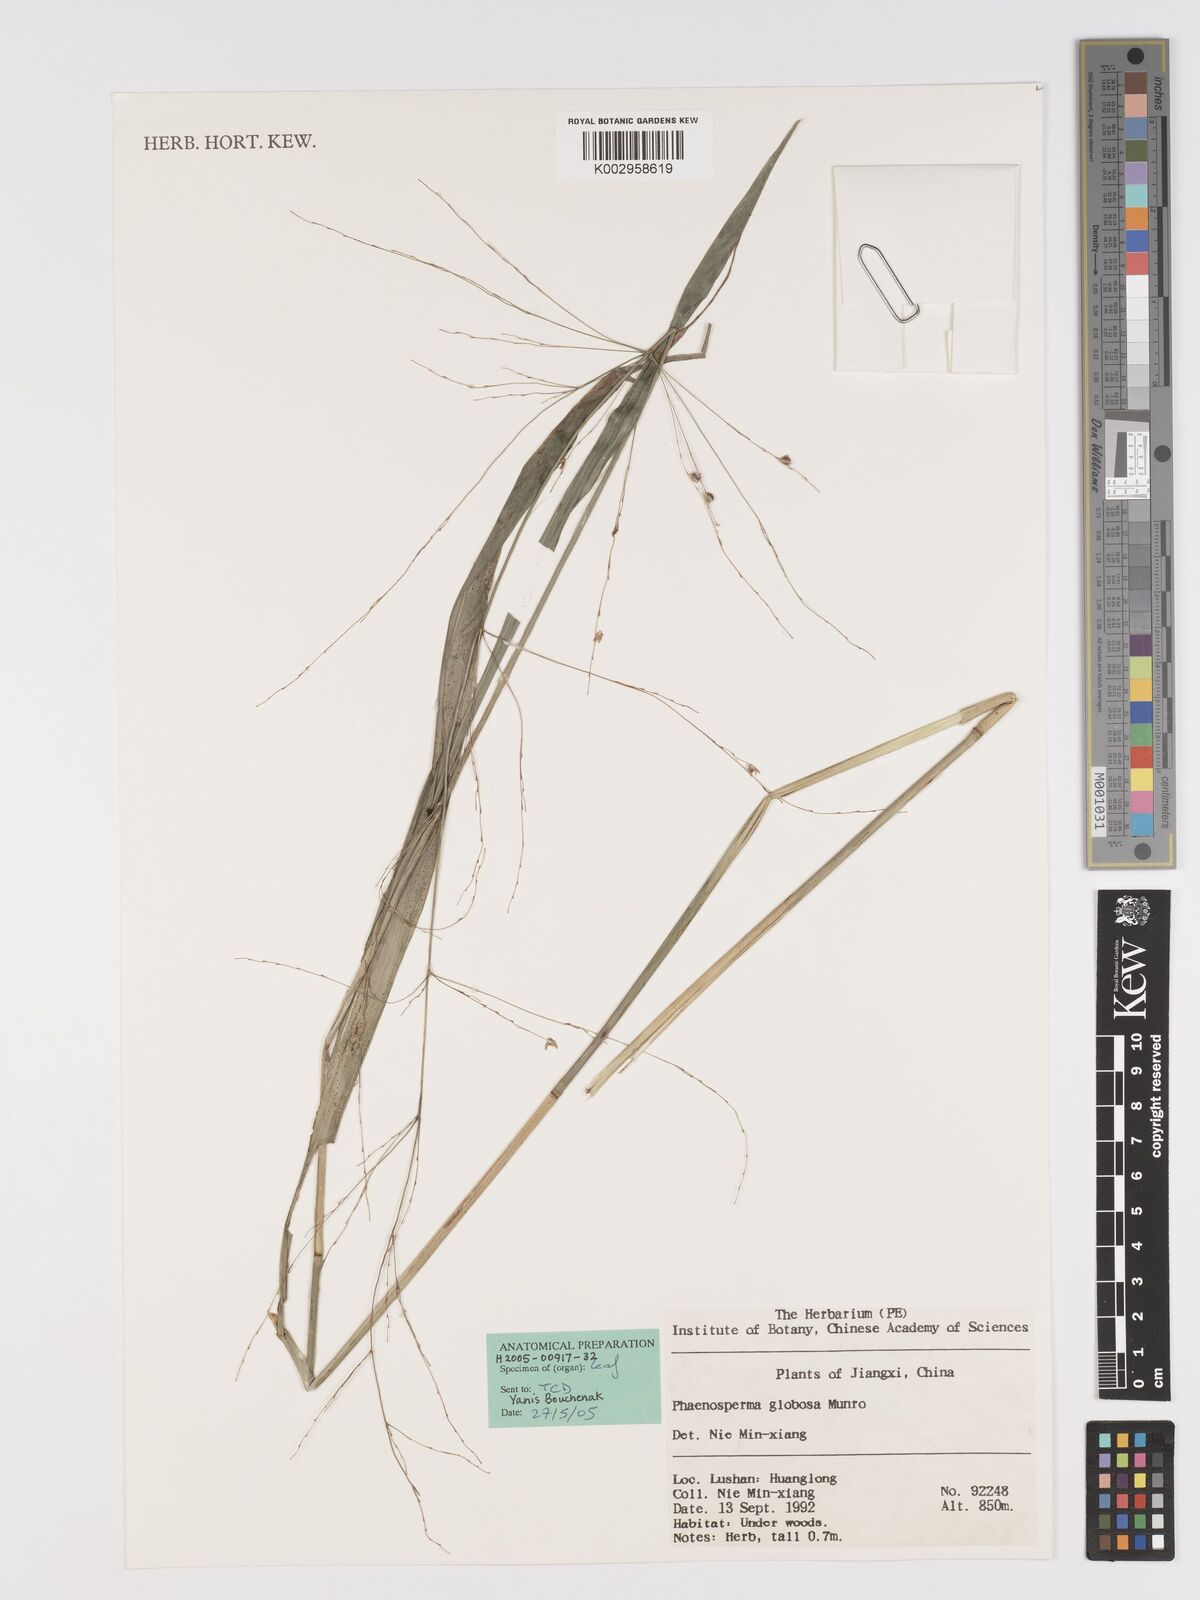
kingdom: Plantae
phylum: Tracheophyta
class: Liliopsida
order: Poales
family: Poaceae
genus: Phaenosperma
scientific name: Phaenosperma globosum
